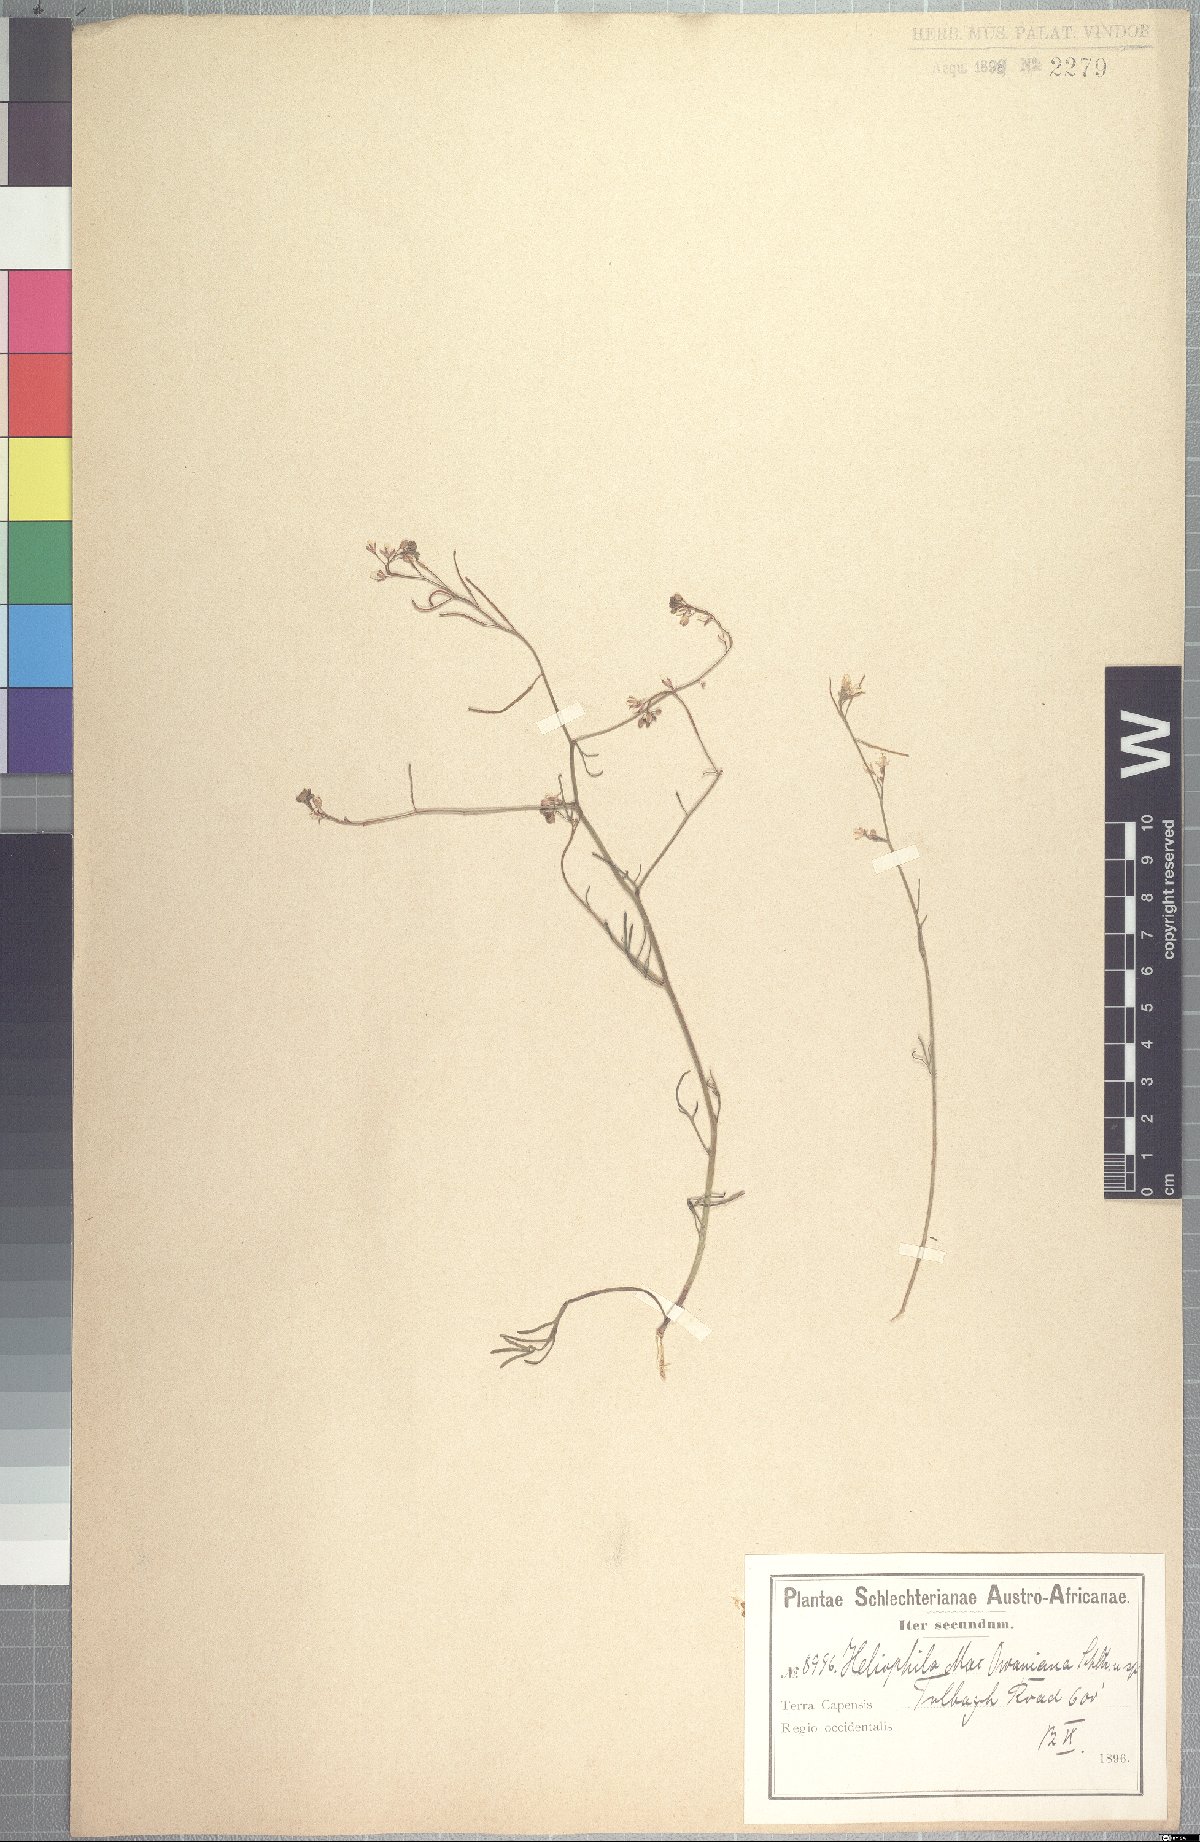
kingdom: Plantae
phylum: Tracheophyta
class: Magnoliopsida
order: Brassicales
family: Brassicaceae
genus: Heliophila
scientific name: Heliophila macowaniana
